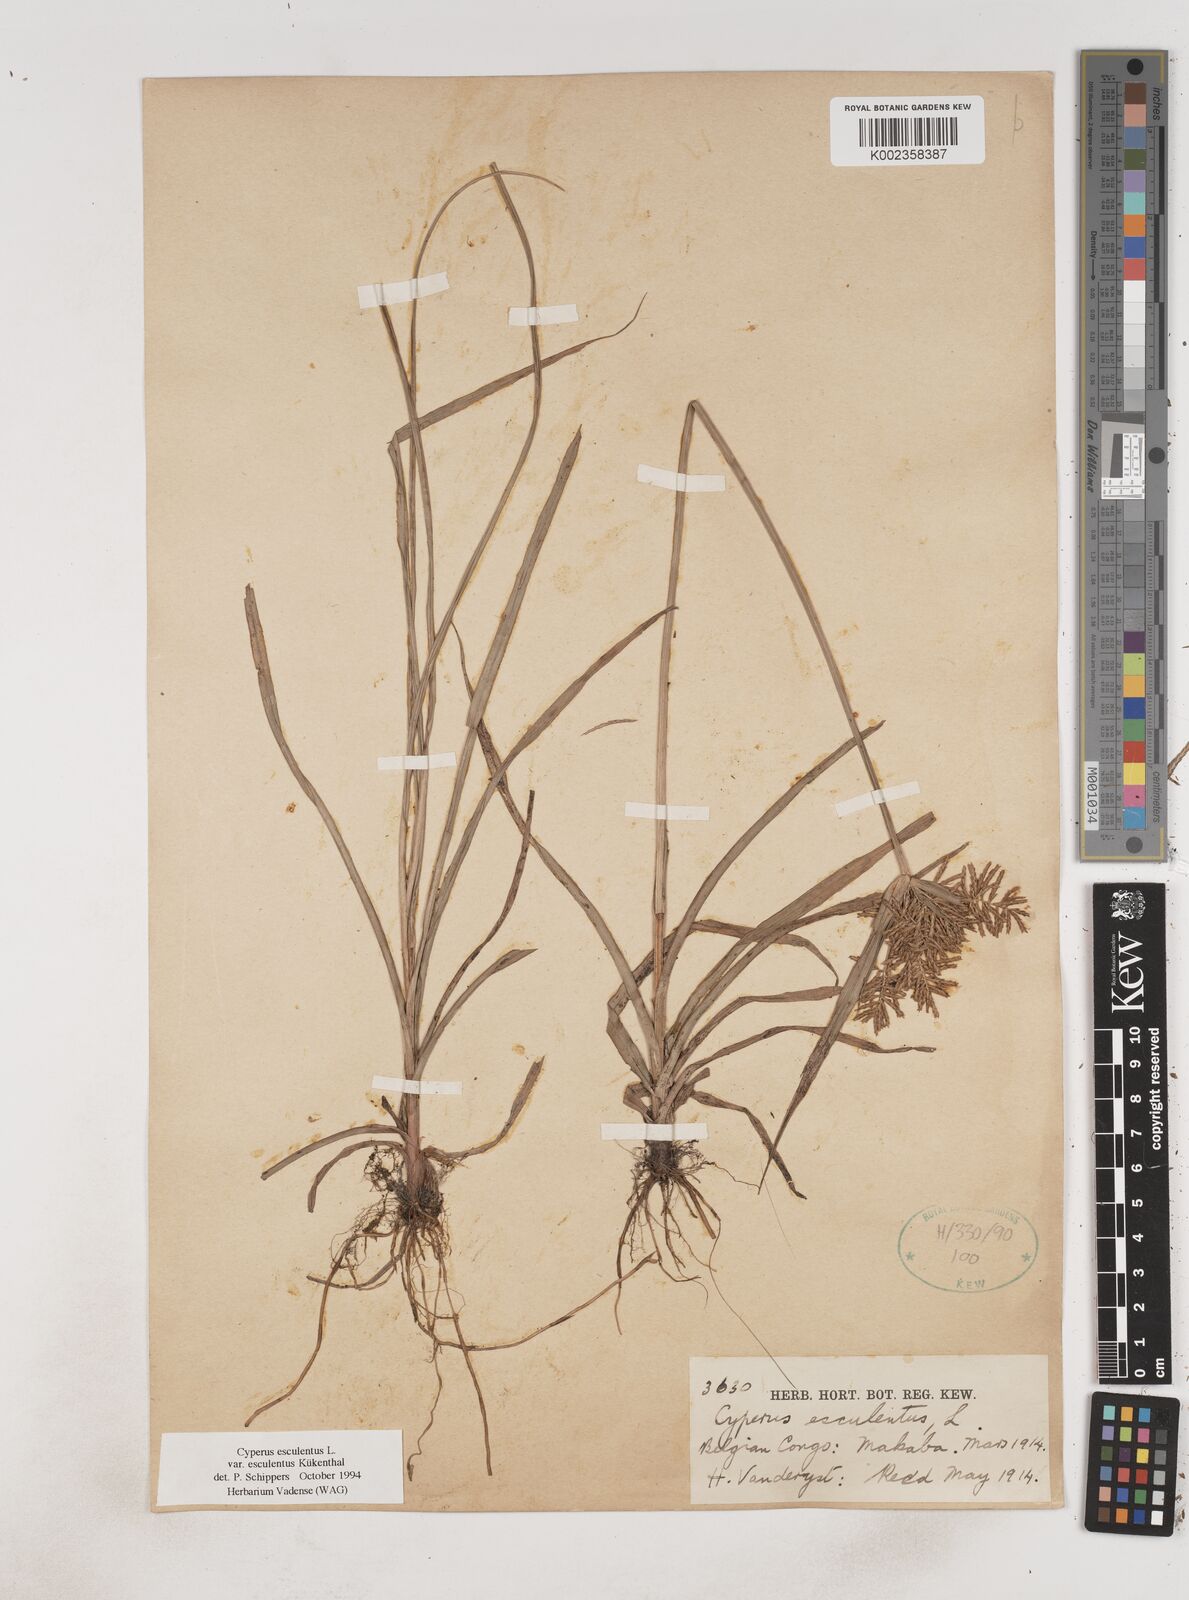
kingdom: Plantae
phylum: Tracheophyta
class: Liliopsida
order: Poales
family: Cyperaceae
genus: Cyperus
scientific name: Cyperus esculentus
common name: Yellow nutsedge
